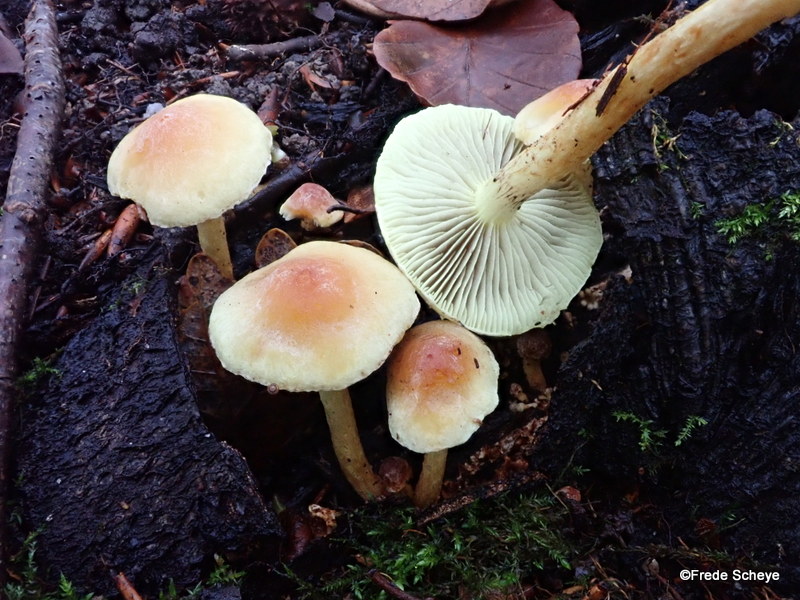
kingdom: Fungi
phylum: Basidiomycota
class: Agaricomycetes
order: Agaricales
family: Strophariaceae
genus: Hypholoma
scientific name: Hypholoma fasciculare
